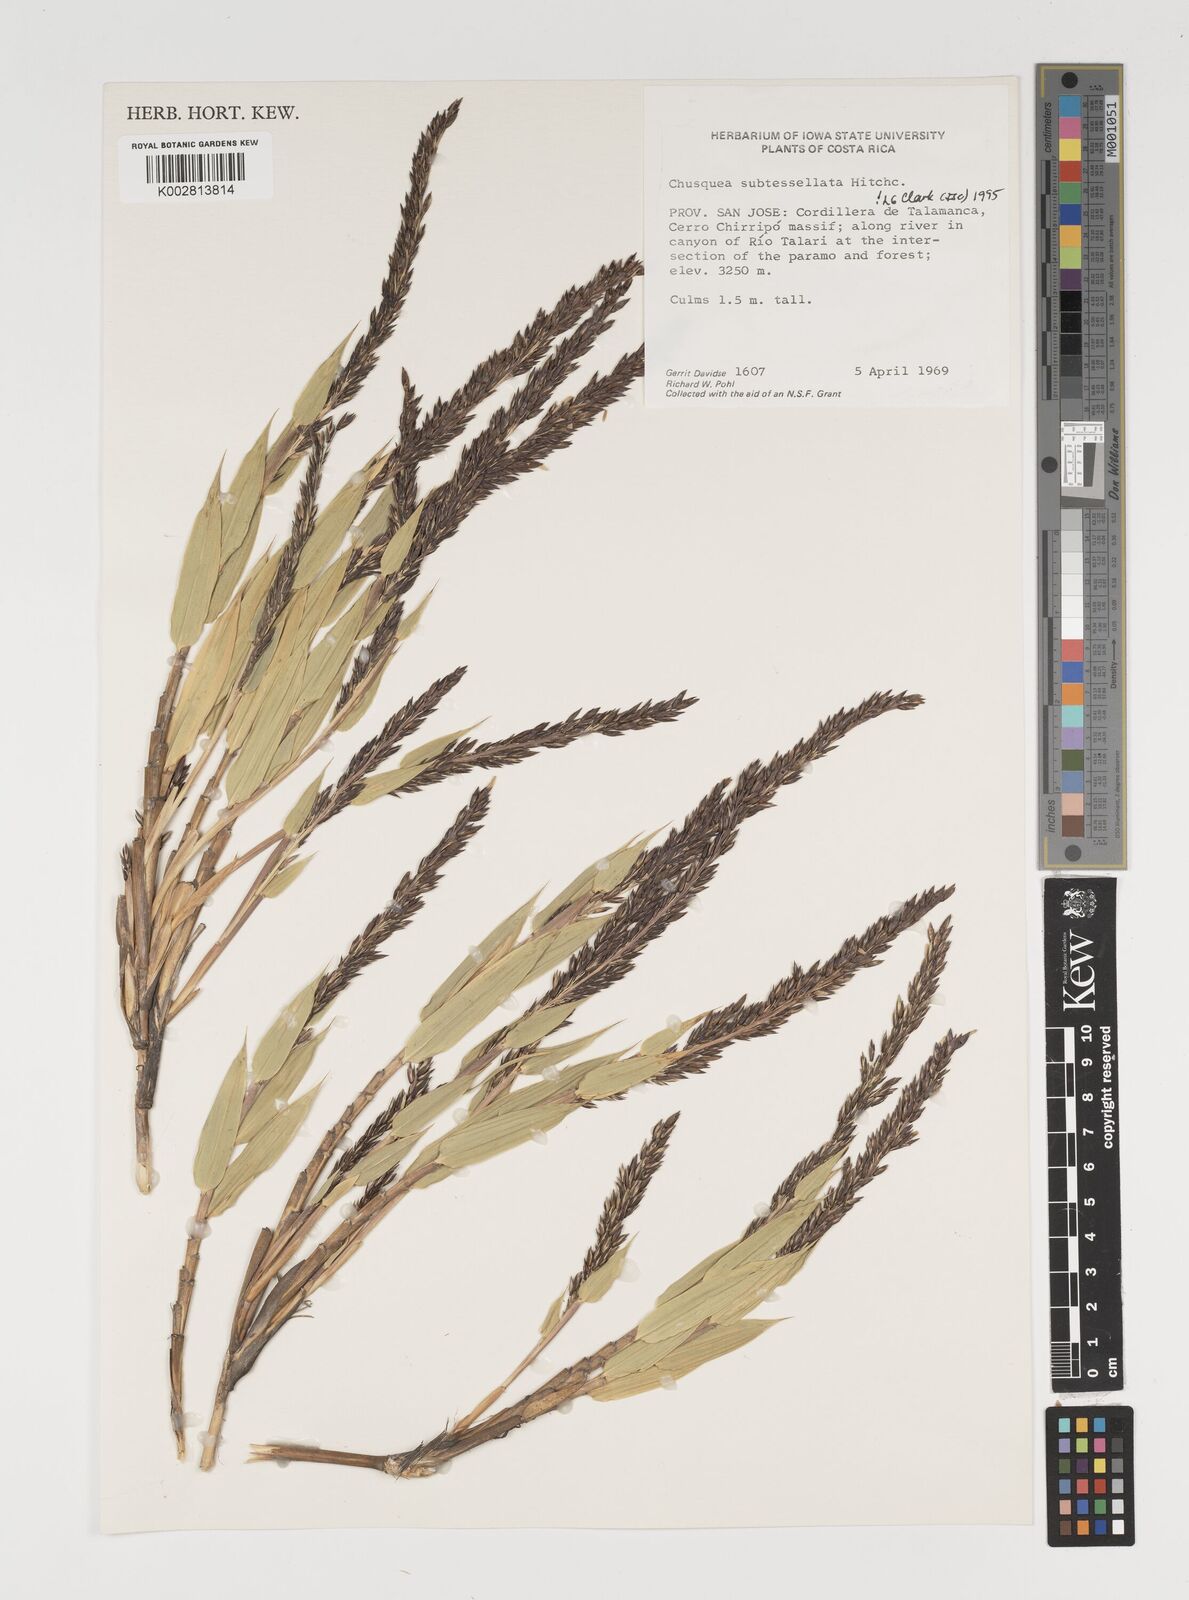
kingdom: Plantae
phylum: Tracheophyta
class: Liliopsida
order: Poales
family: Poaceae
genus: Chusquea
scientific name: Chusquea subtessellata
